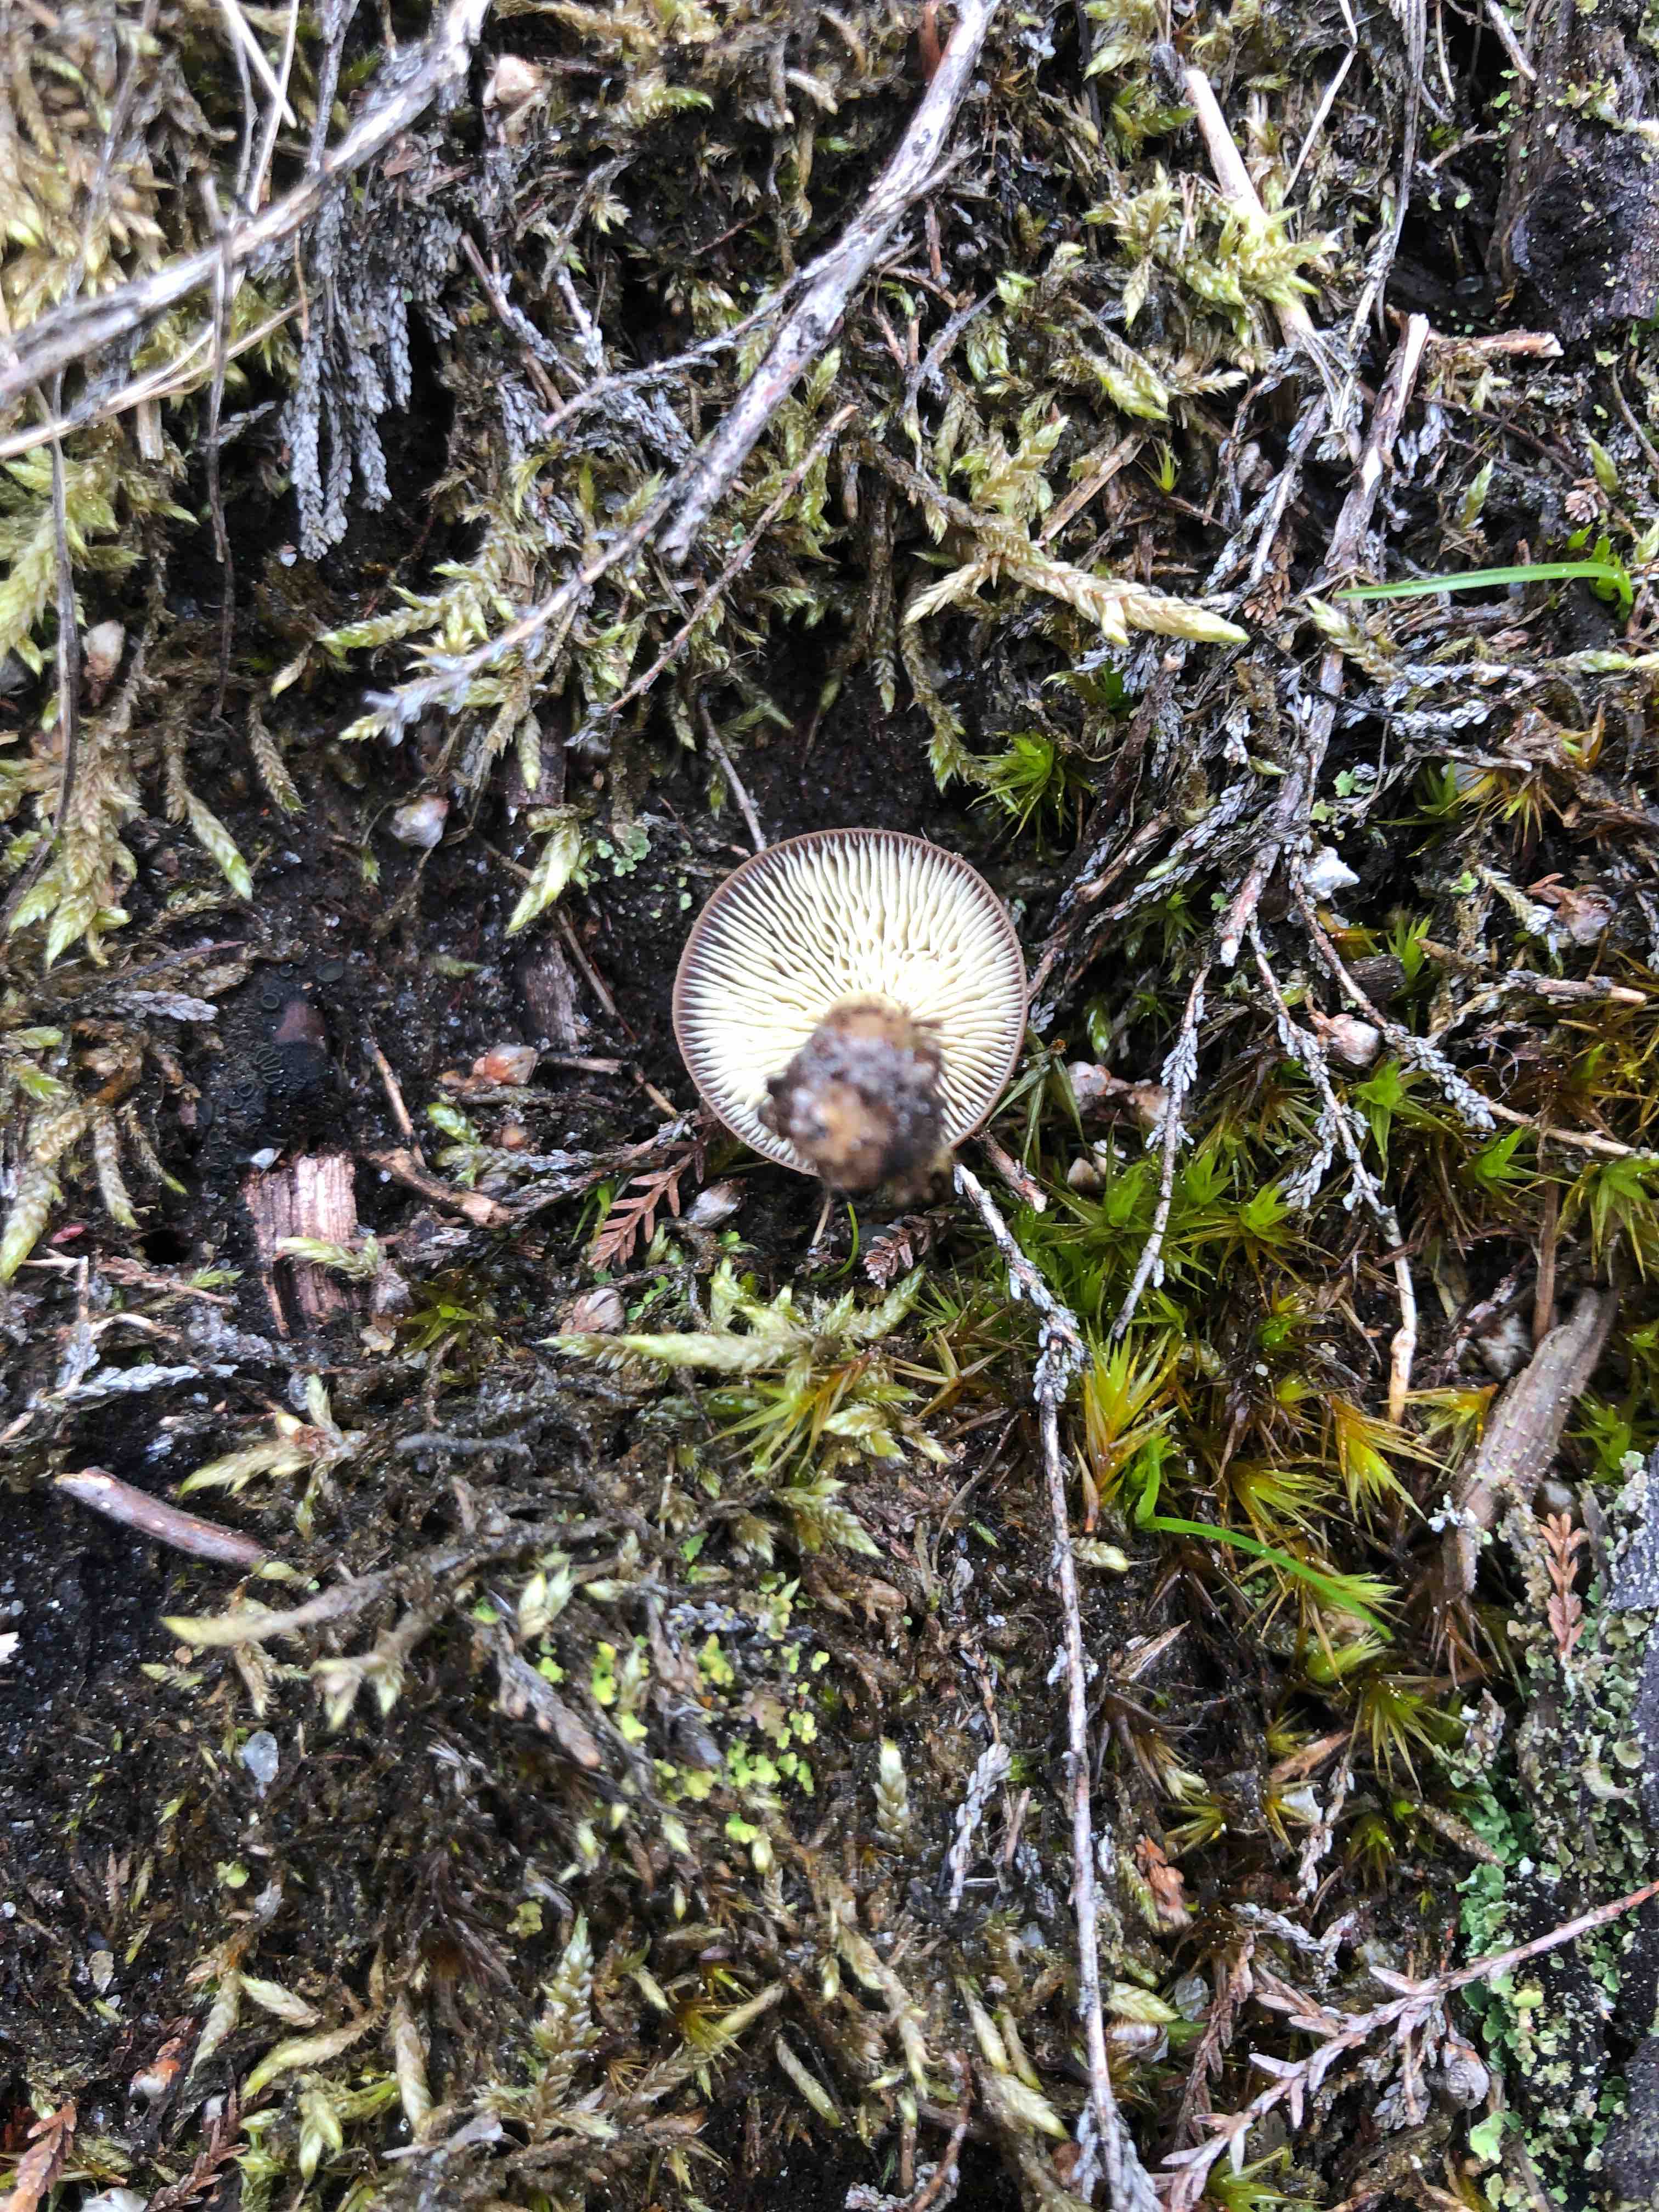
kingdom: Fungi
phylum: Basidiomycota
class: Agaricomycetes
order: Agaricales
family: Omphalotaceae
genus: Gymnopus
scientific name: Gymnopus
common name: fladhat
